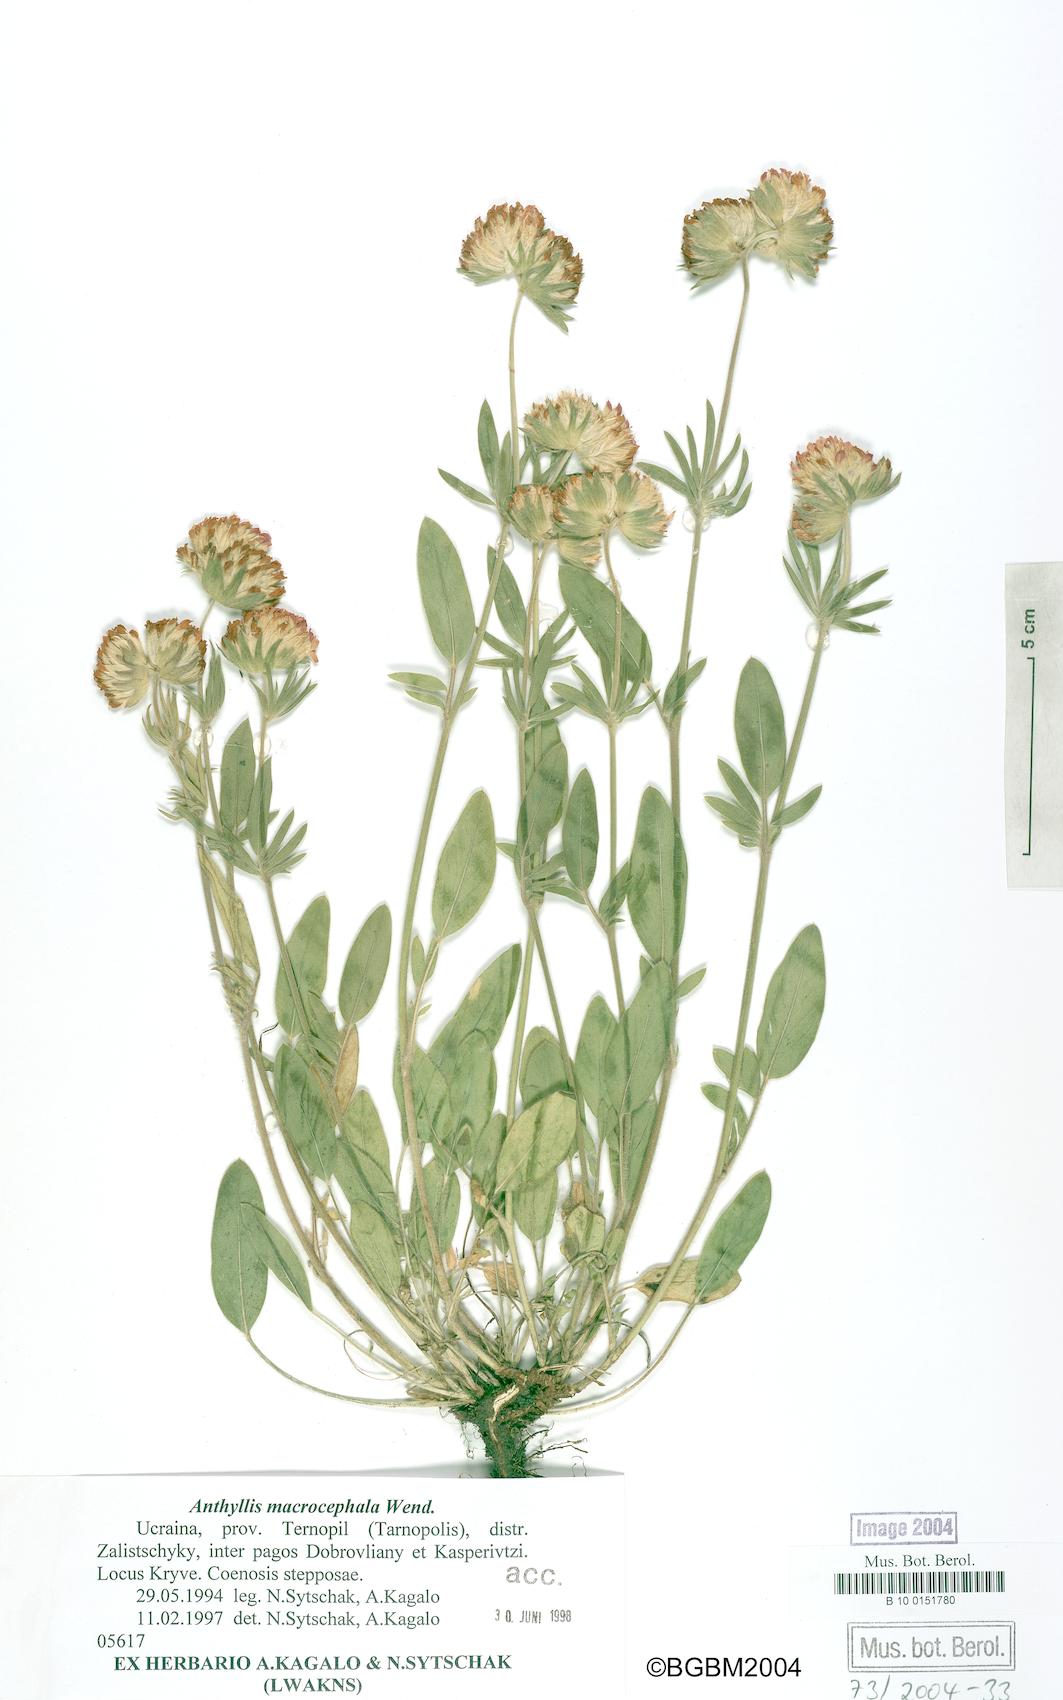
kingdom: Plantae
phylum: Tracheophyta
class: Magnoliopsida
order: Fabales
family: Fabaceae
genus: Anthyllis
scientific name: Anthyllis vulneraria
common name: Kidney vetch
